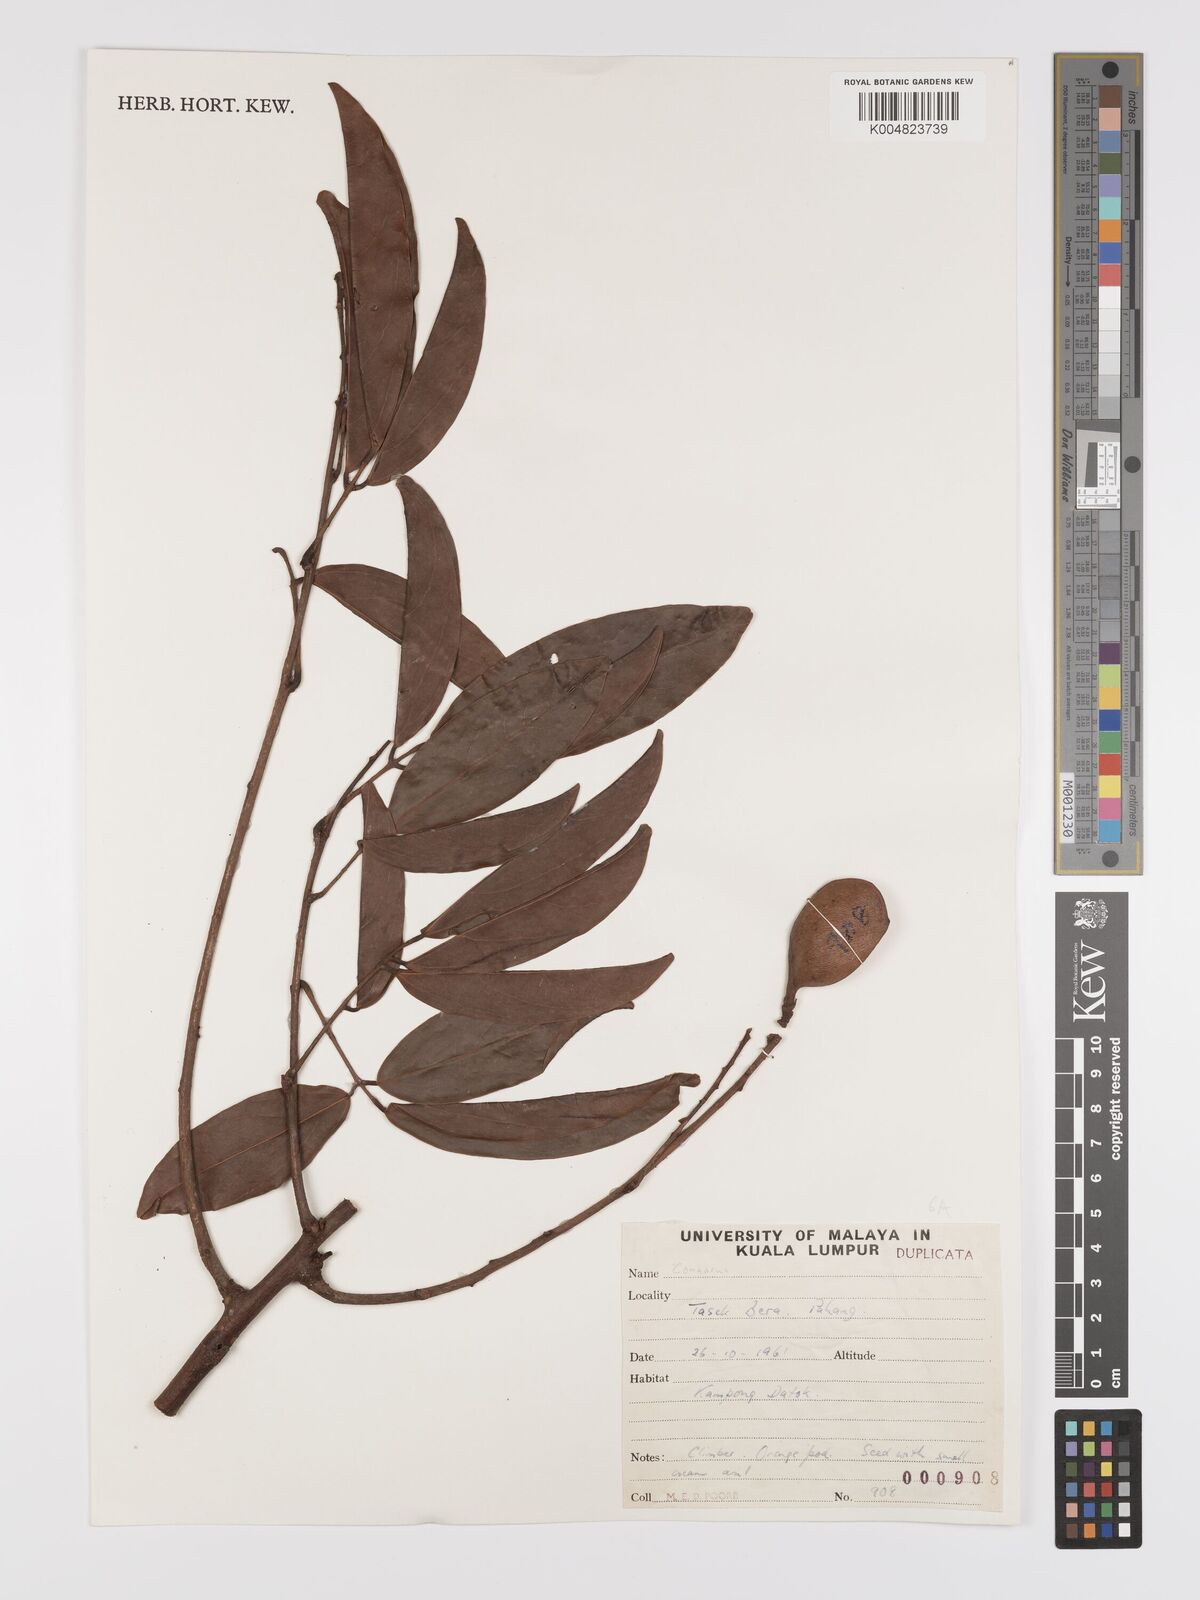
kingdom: Plantae
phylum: Tracheophyta
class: Magnoliopsida
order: Oxalidales
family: Connaraceae
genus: Connarus
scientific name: Connarus
